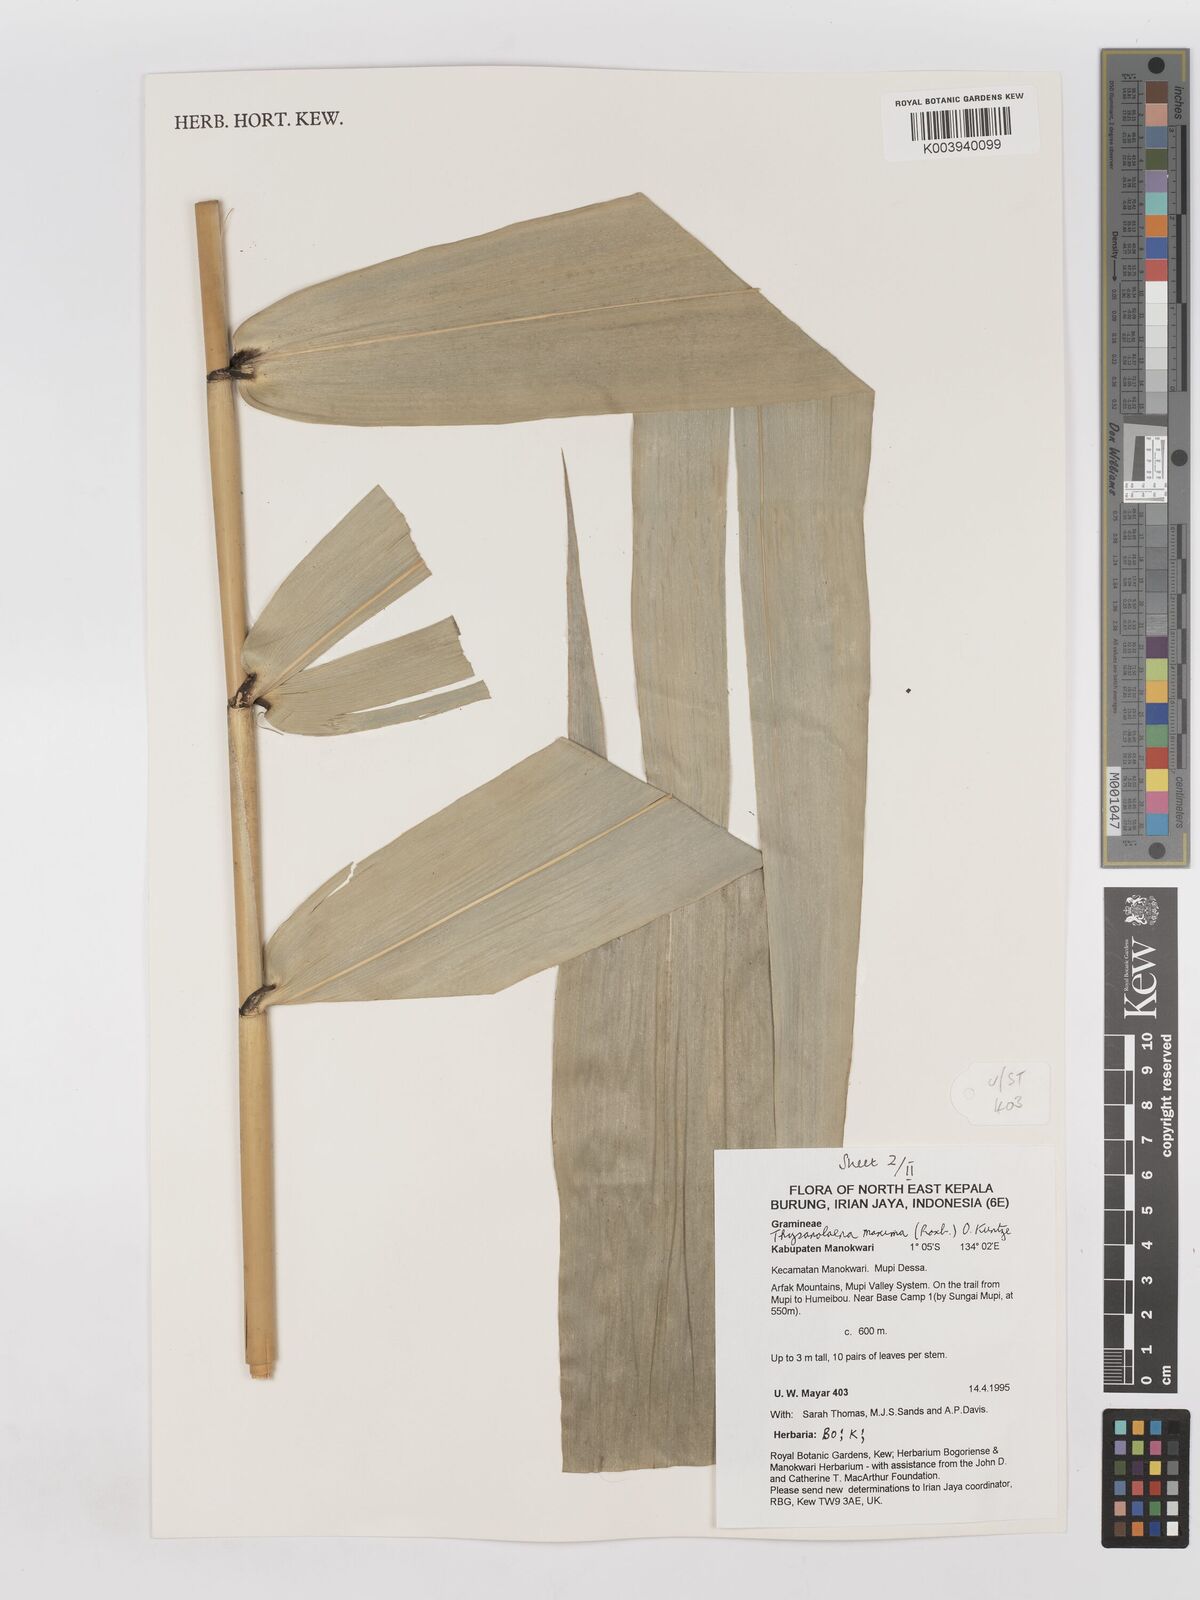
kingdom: Plantae
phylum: Tracheophyta
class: Liliopsida
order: Poales
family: Poaceae
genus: Thysanolaena
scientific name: Thysanolaena latifolia
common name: Tiger grass
